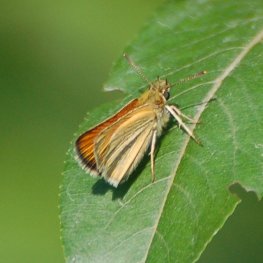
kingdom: Animalia
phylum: Arthropoda
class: Insecta
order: Lepidoptera
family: Hesperiidae
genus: Thymelicus
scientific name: Thymelicus lineola
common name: European Skipper
